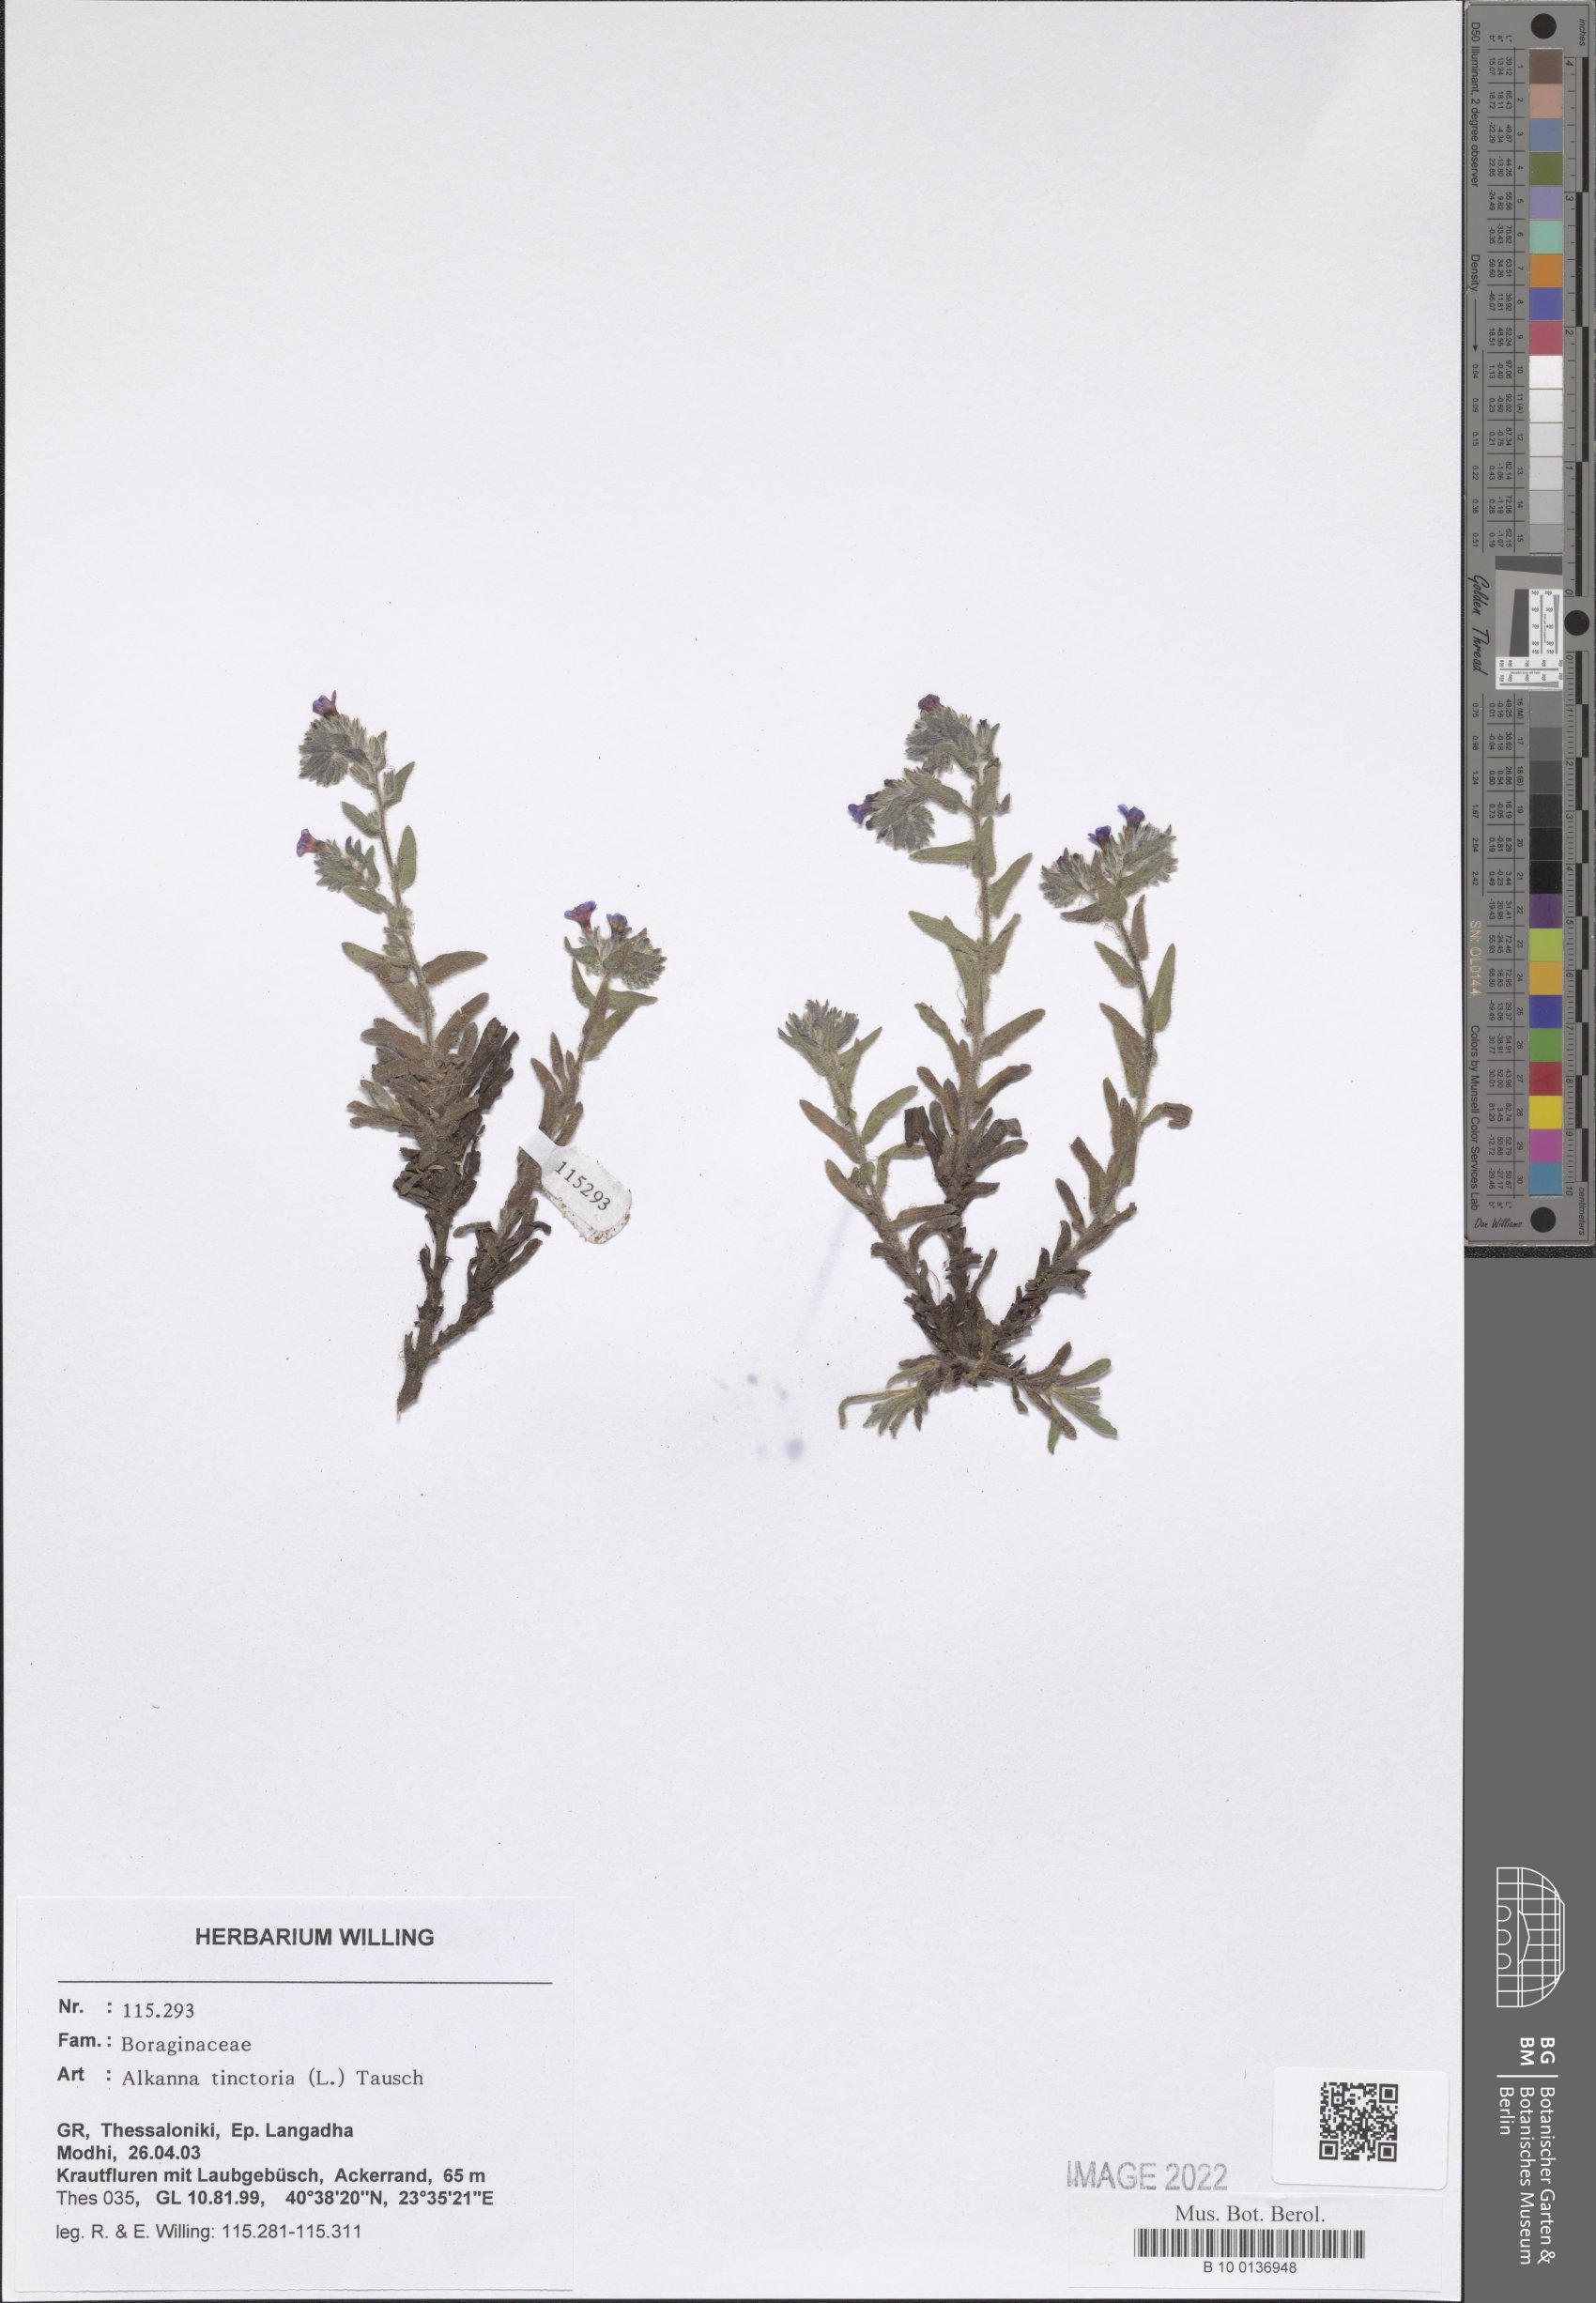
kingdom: Plantae
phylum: Tracheophyta
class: Magnoliopsida
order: Boraginales
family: Boraginaceae
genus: Alkanna
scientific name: Alkanna tinctoria
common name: Dyer's-alkanet
